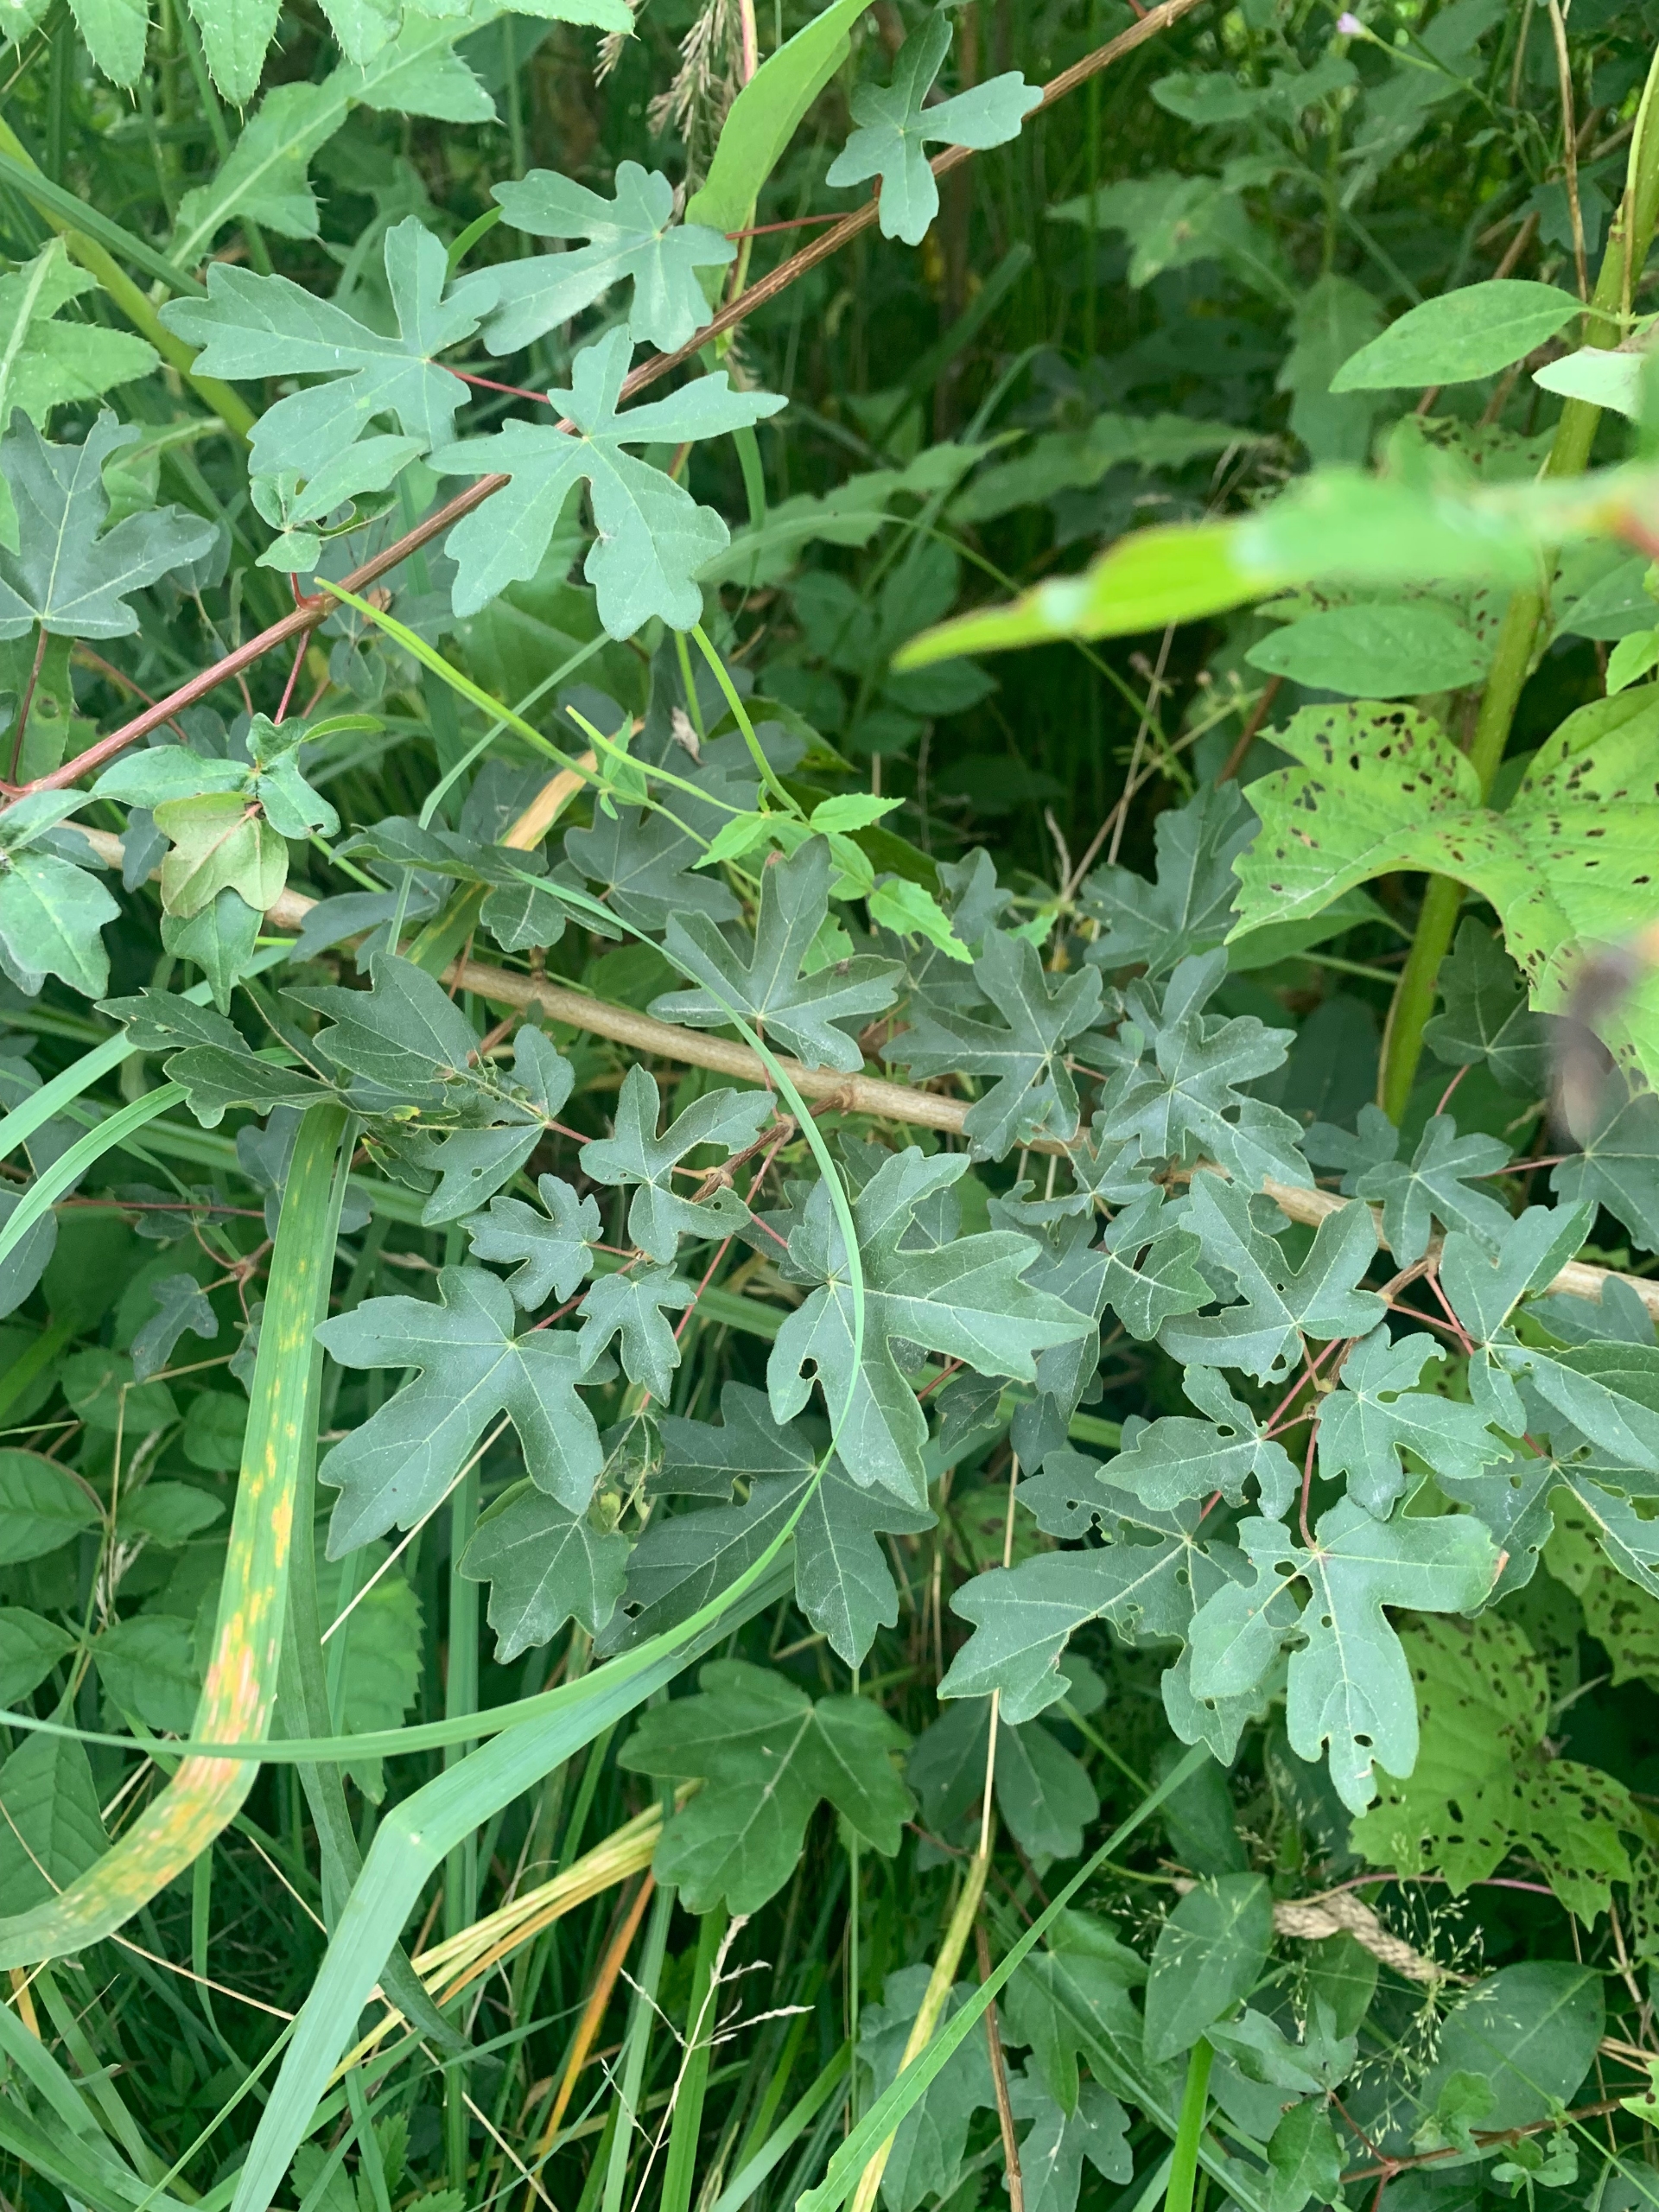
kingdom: Plantae
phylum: Tracheophyta
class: Magnoliopsida
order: Sapindales
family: Sapindaceae
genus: Acer
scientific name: Acer campestre
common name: Navr
